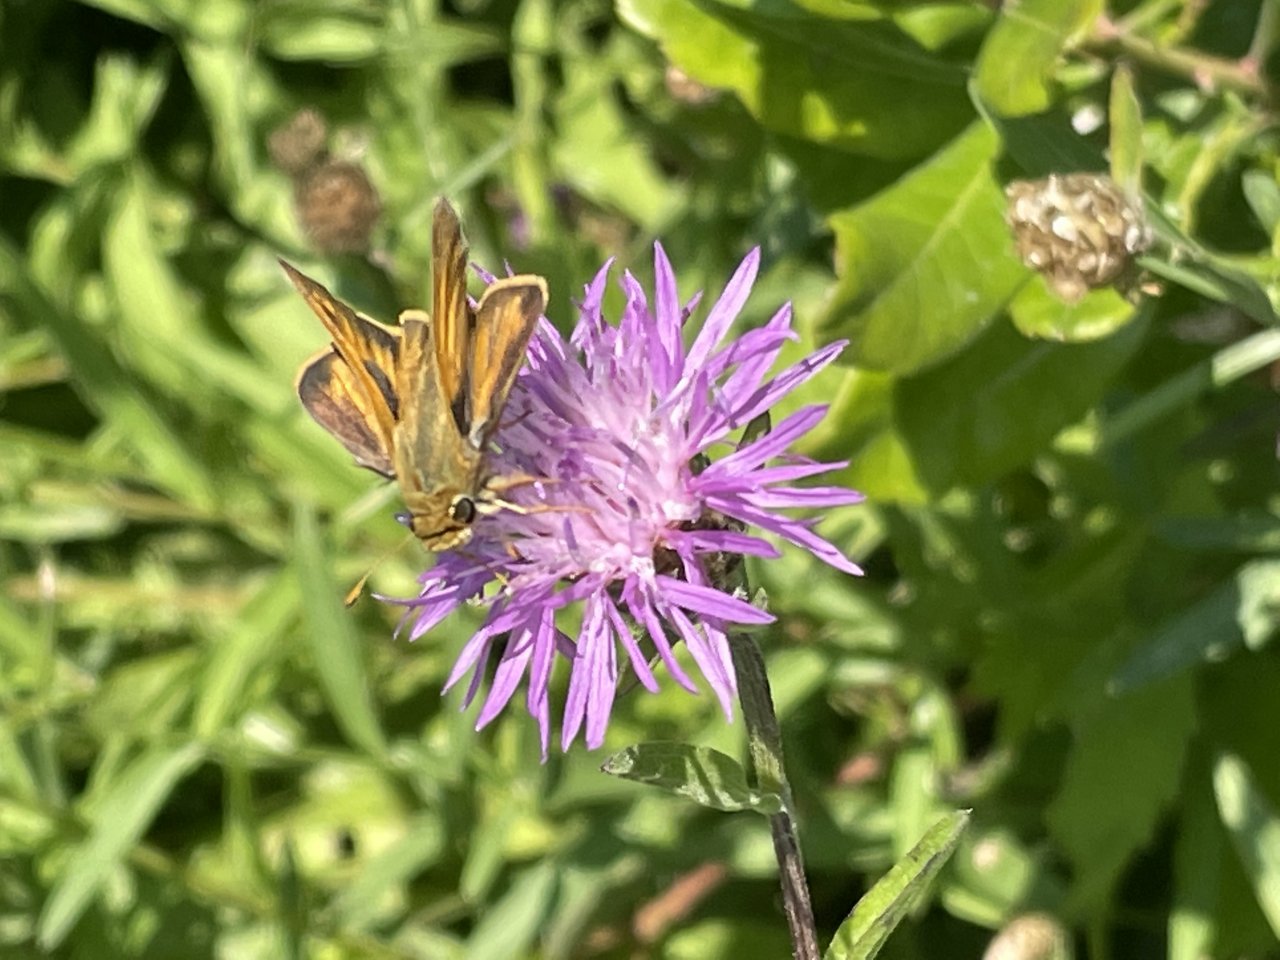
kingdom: Animalia
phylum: Arthropoda
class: Insecta
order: Lepidoptera
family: Hesperiidae
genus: Polites
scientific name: Polites
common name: Long Dash Skipper
